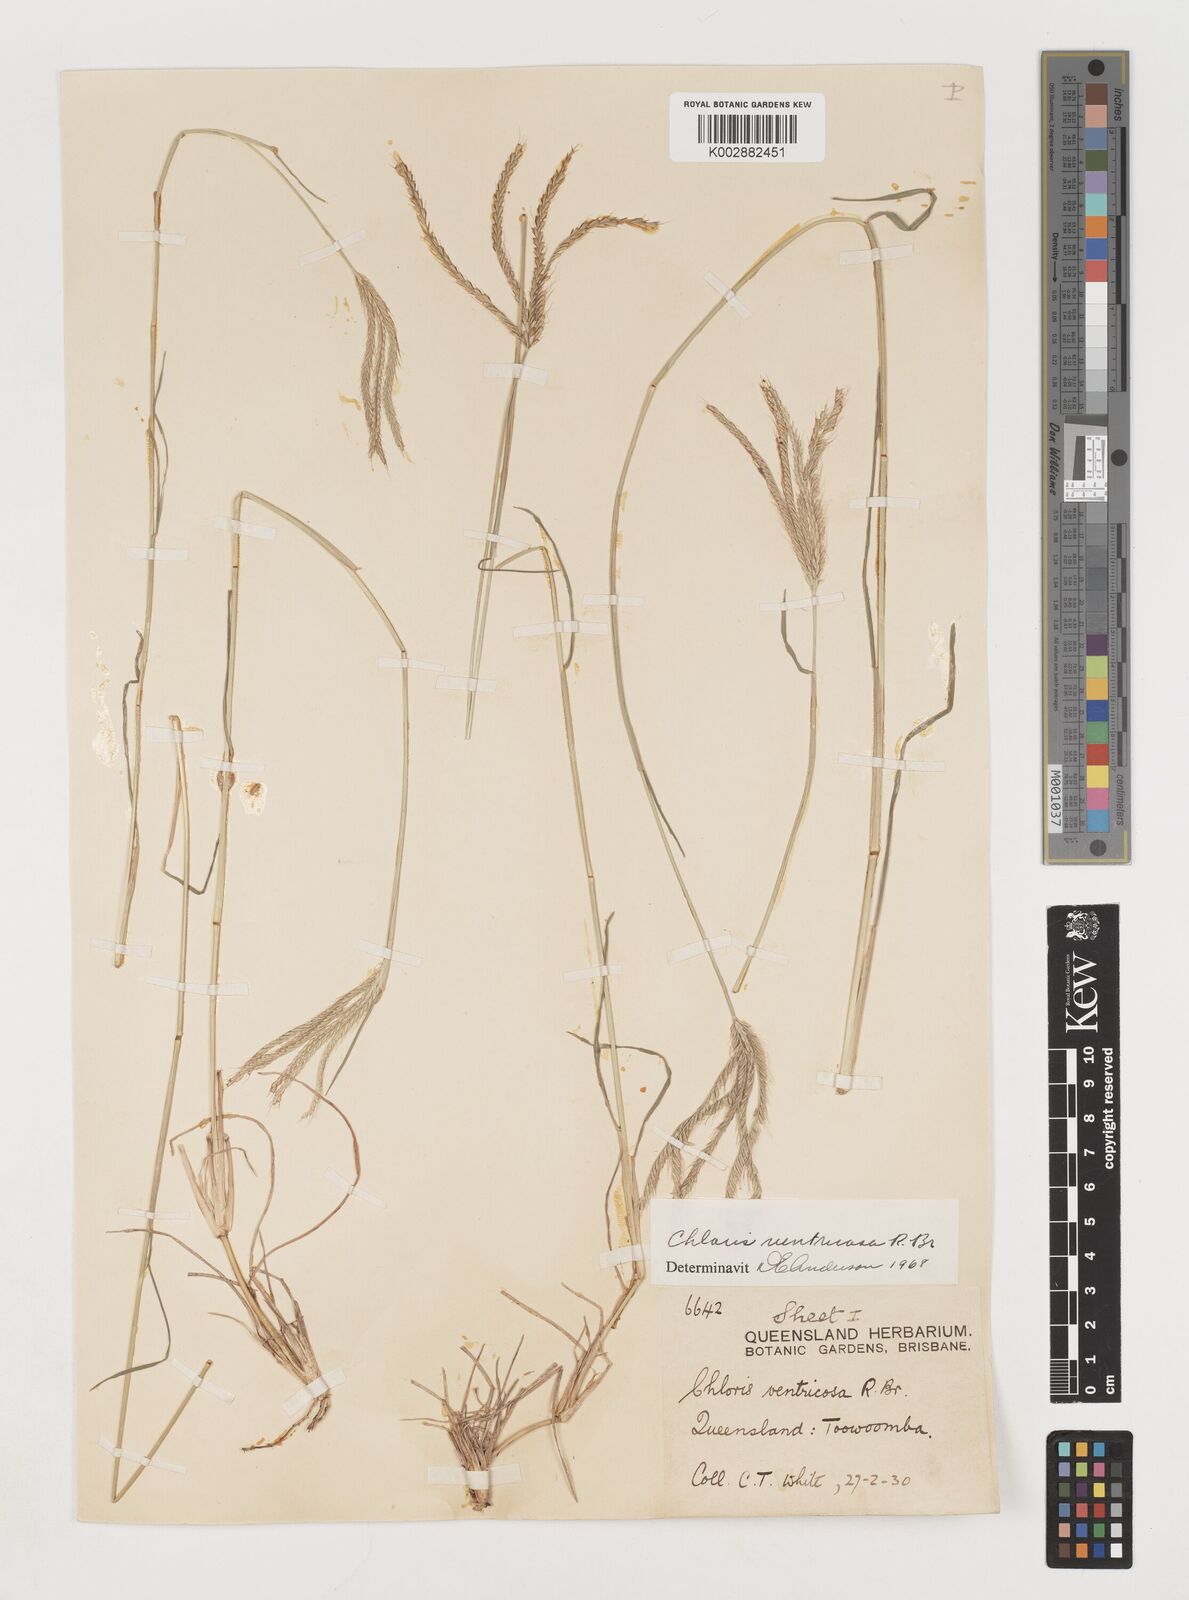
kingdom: Plantae
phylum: Tracheophyta
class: Liliopsida
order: Poales
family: Poaceae
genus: Chloris
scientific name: Chloris ventricosa
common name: Australian windmill grass
